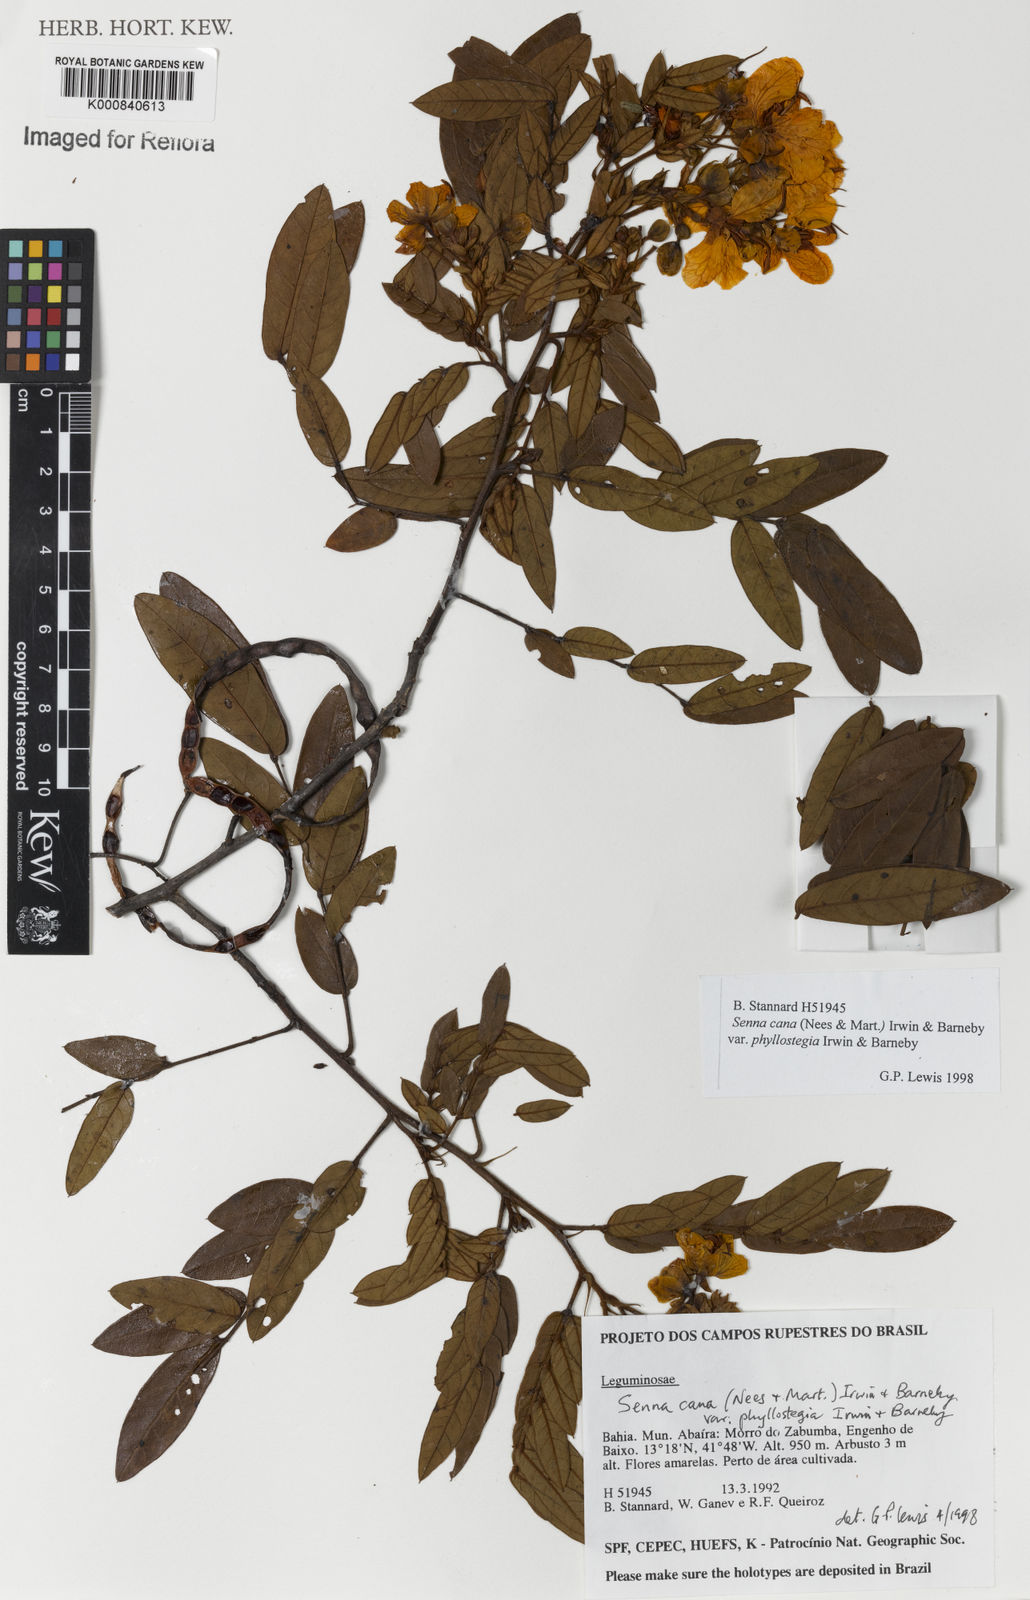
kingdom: Plantae
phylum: Tracheophyta
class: Magnoliopsida
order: Fabales
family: Fabaceae
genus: Senna
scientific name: Senna cana
